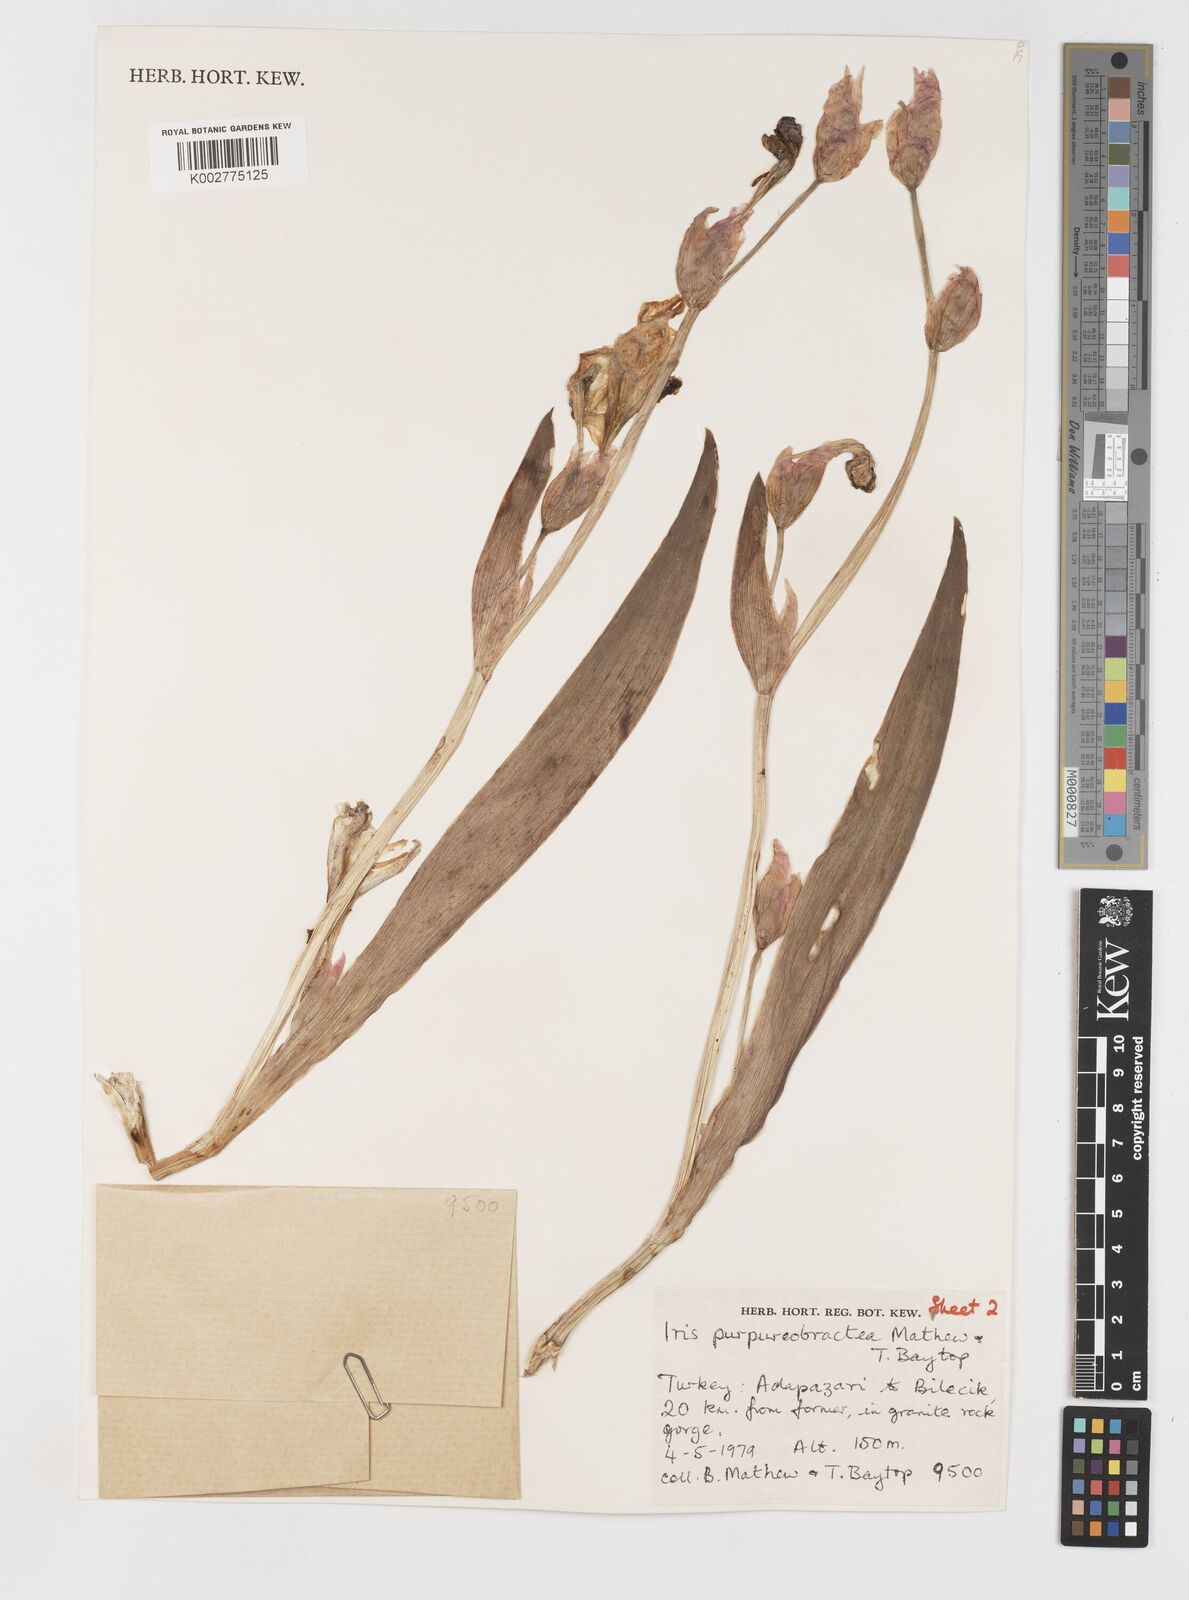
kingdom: Plantae
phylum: Tracheophyta
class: Liliopsida
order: Asparagales
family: Iridaceae
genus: Iris
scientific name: Iris purpureobractea
